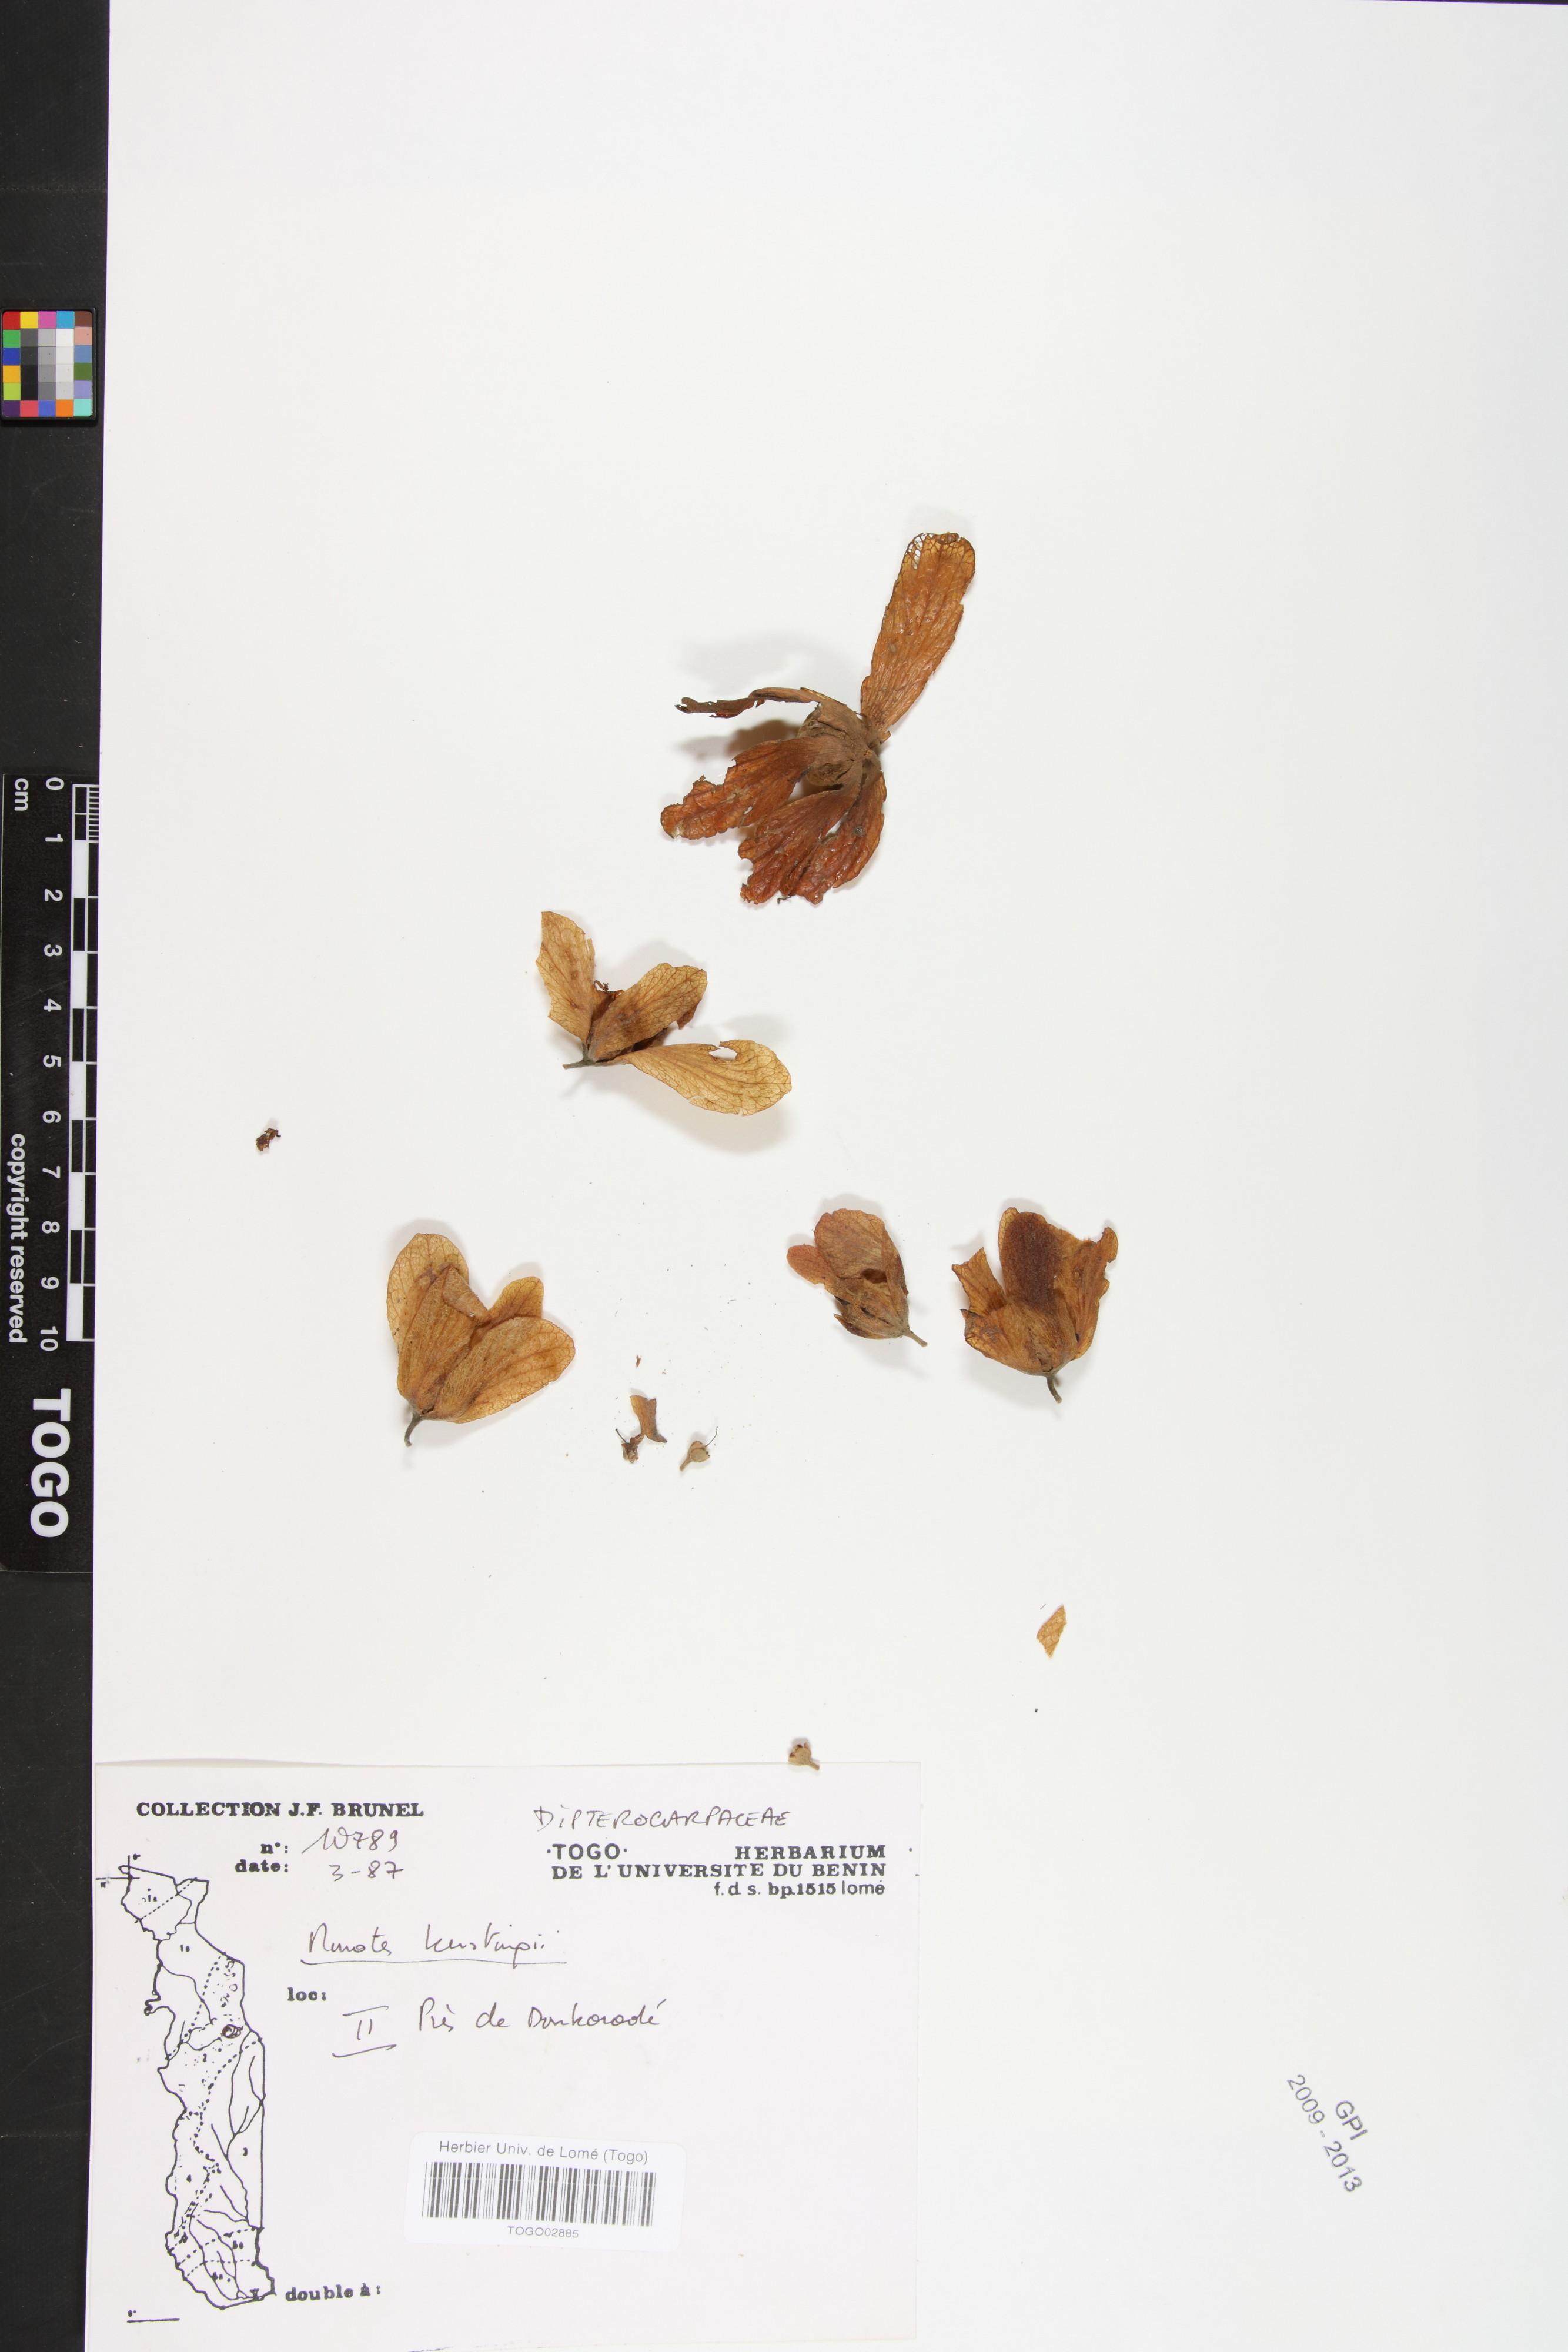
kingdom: Plantae
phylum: Tracheophyta
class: Magnoliopsida
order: Malvales
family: Dipterocarpaceae
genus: Monotes
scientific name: Monotes kerstingii
